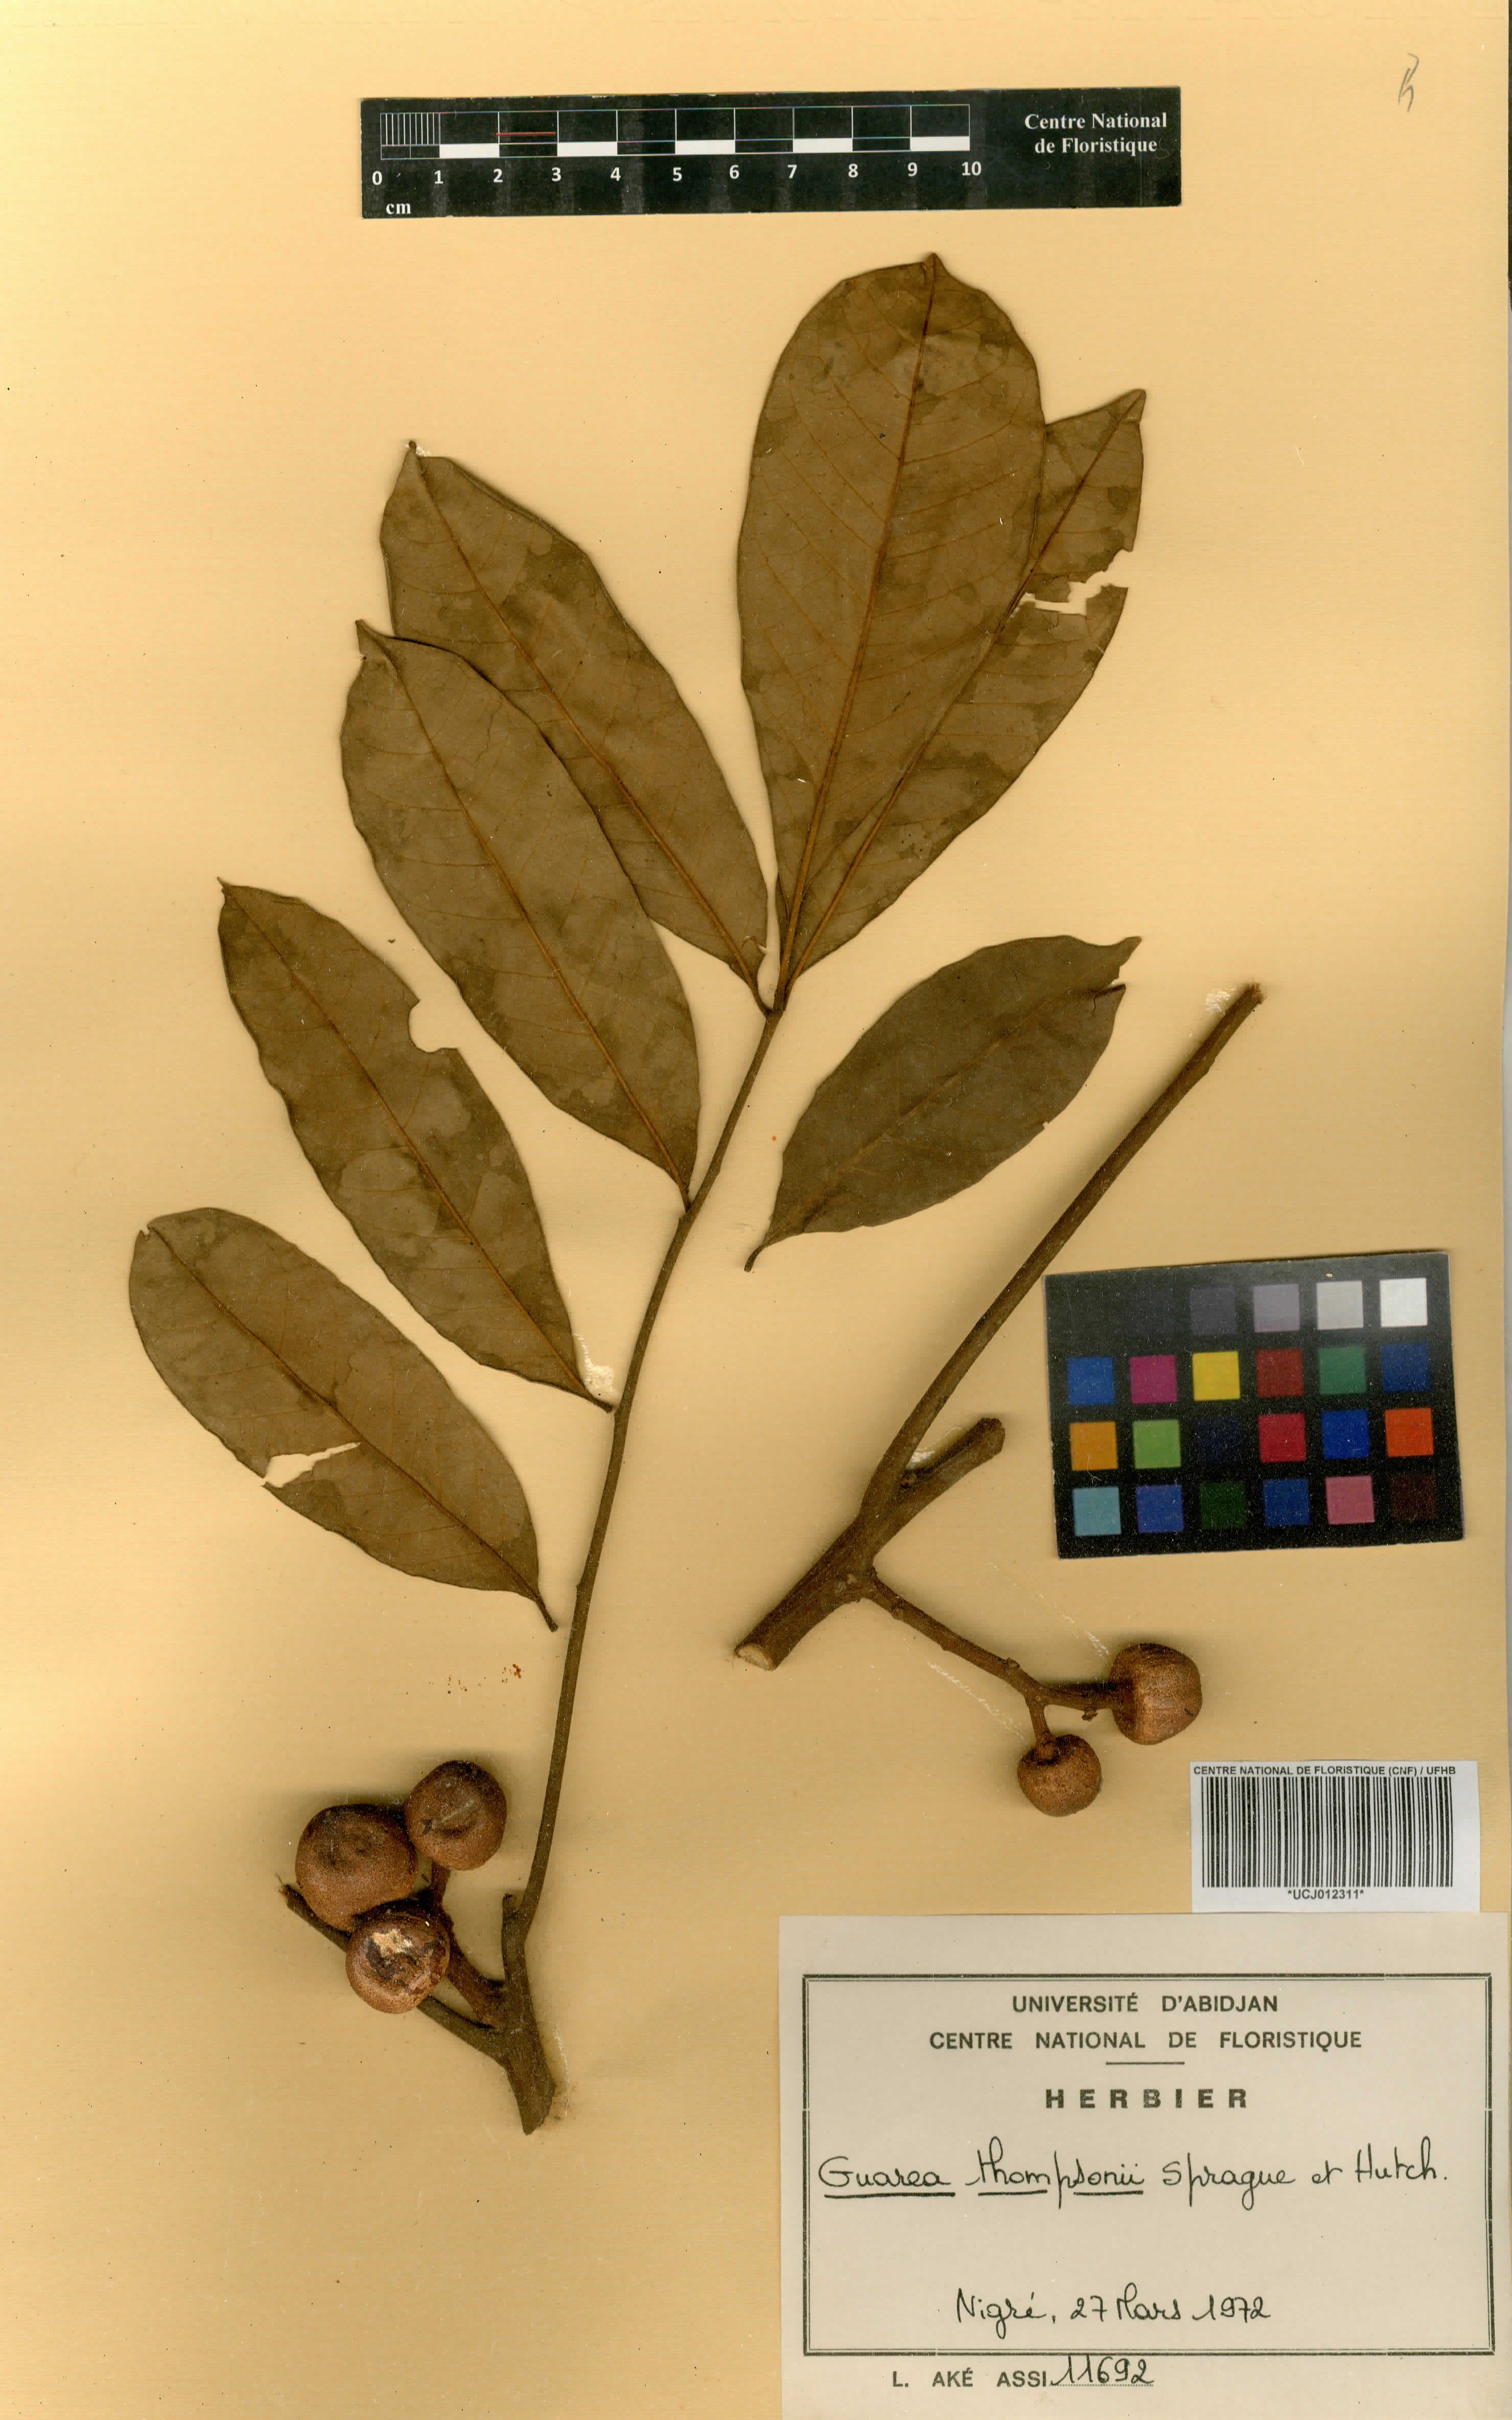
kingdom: Plantae
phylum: Tracheophyta
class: Magnoliopsida
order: Sapindales
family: Meliaceae
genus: Leplaea
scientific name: Leplaea thompsonii
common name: Black guarea
